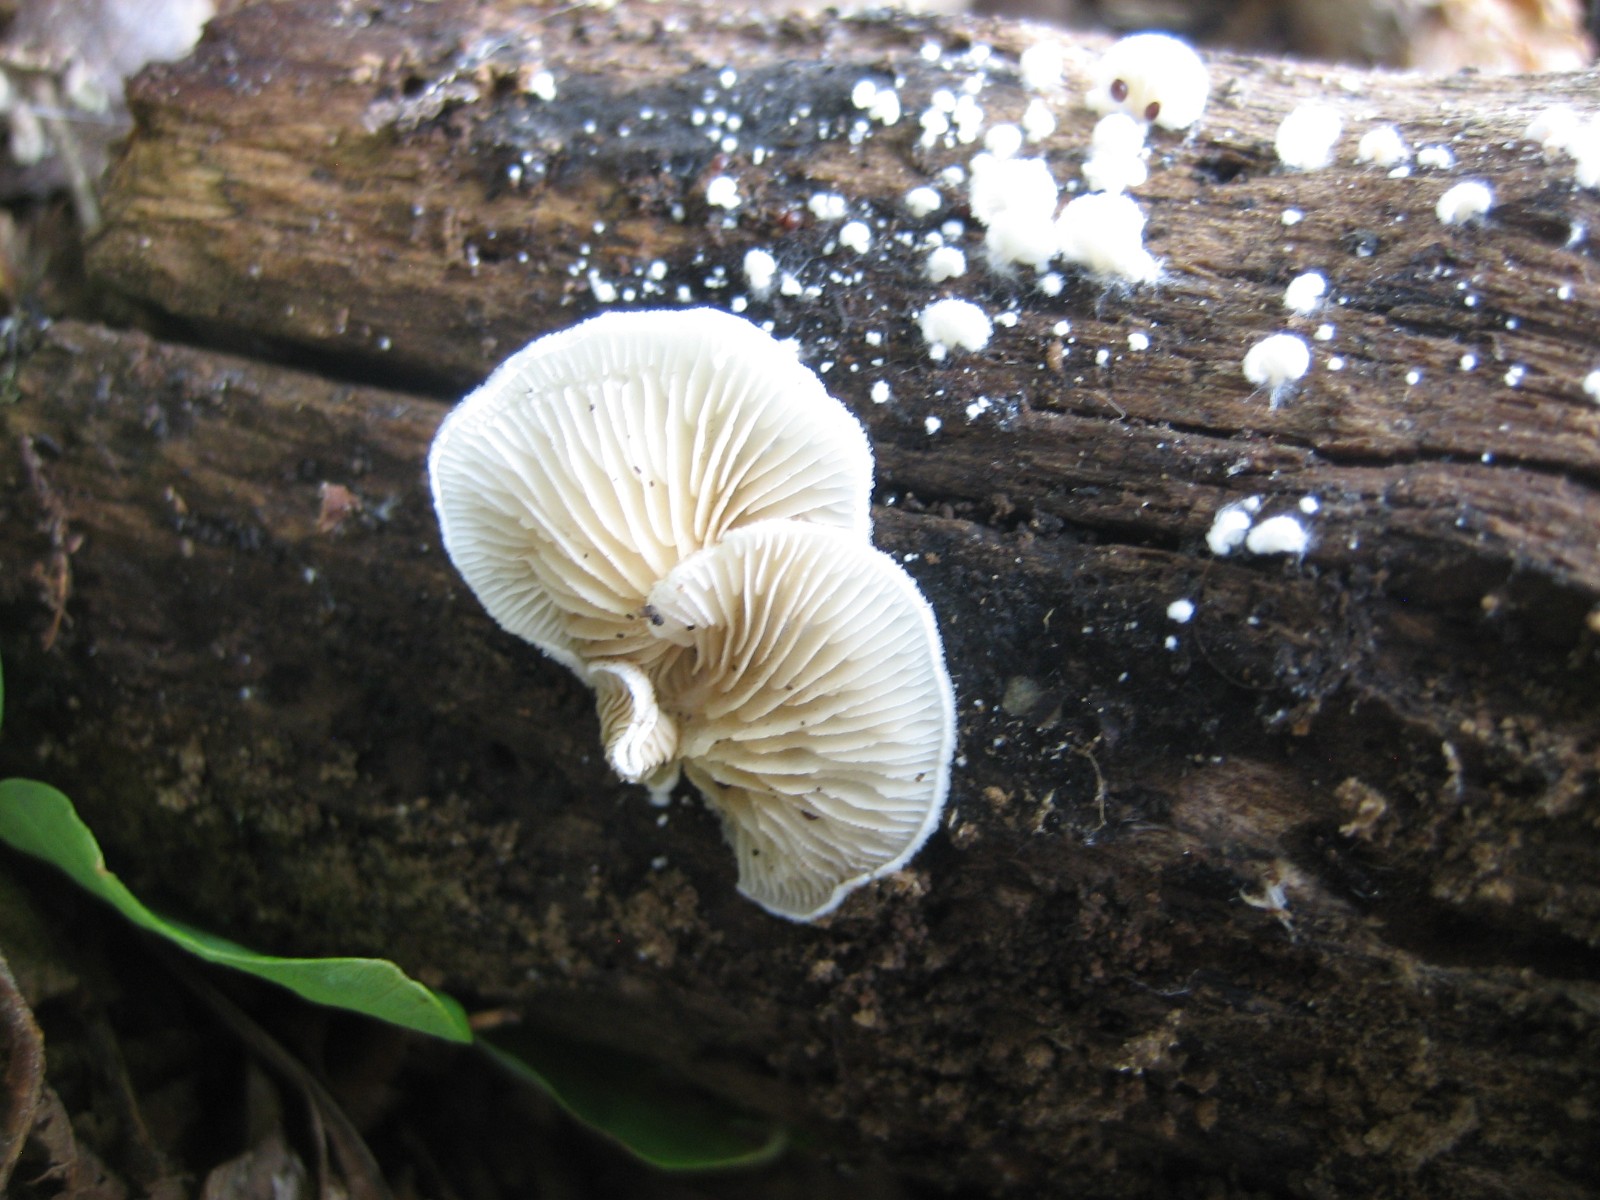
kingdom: Fungi
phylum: Basidiomycota
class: Agaricomycetes
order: Agaricales
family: Crepidotaceae
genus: Crepidotus
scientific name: Crepidotus
